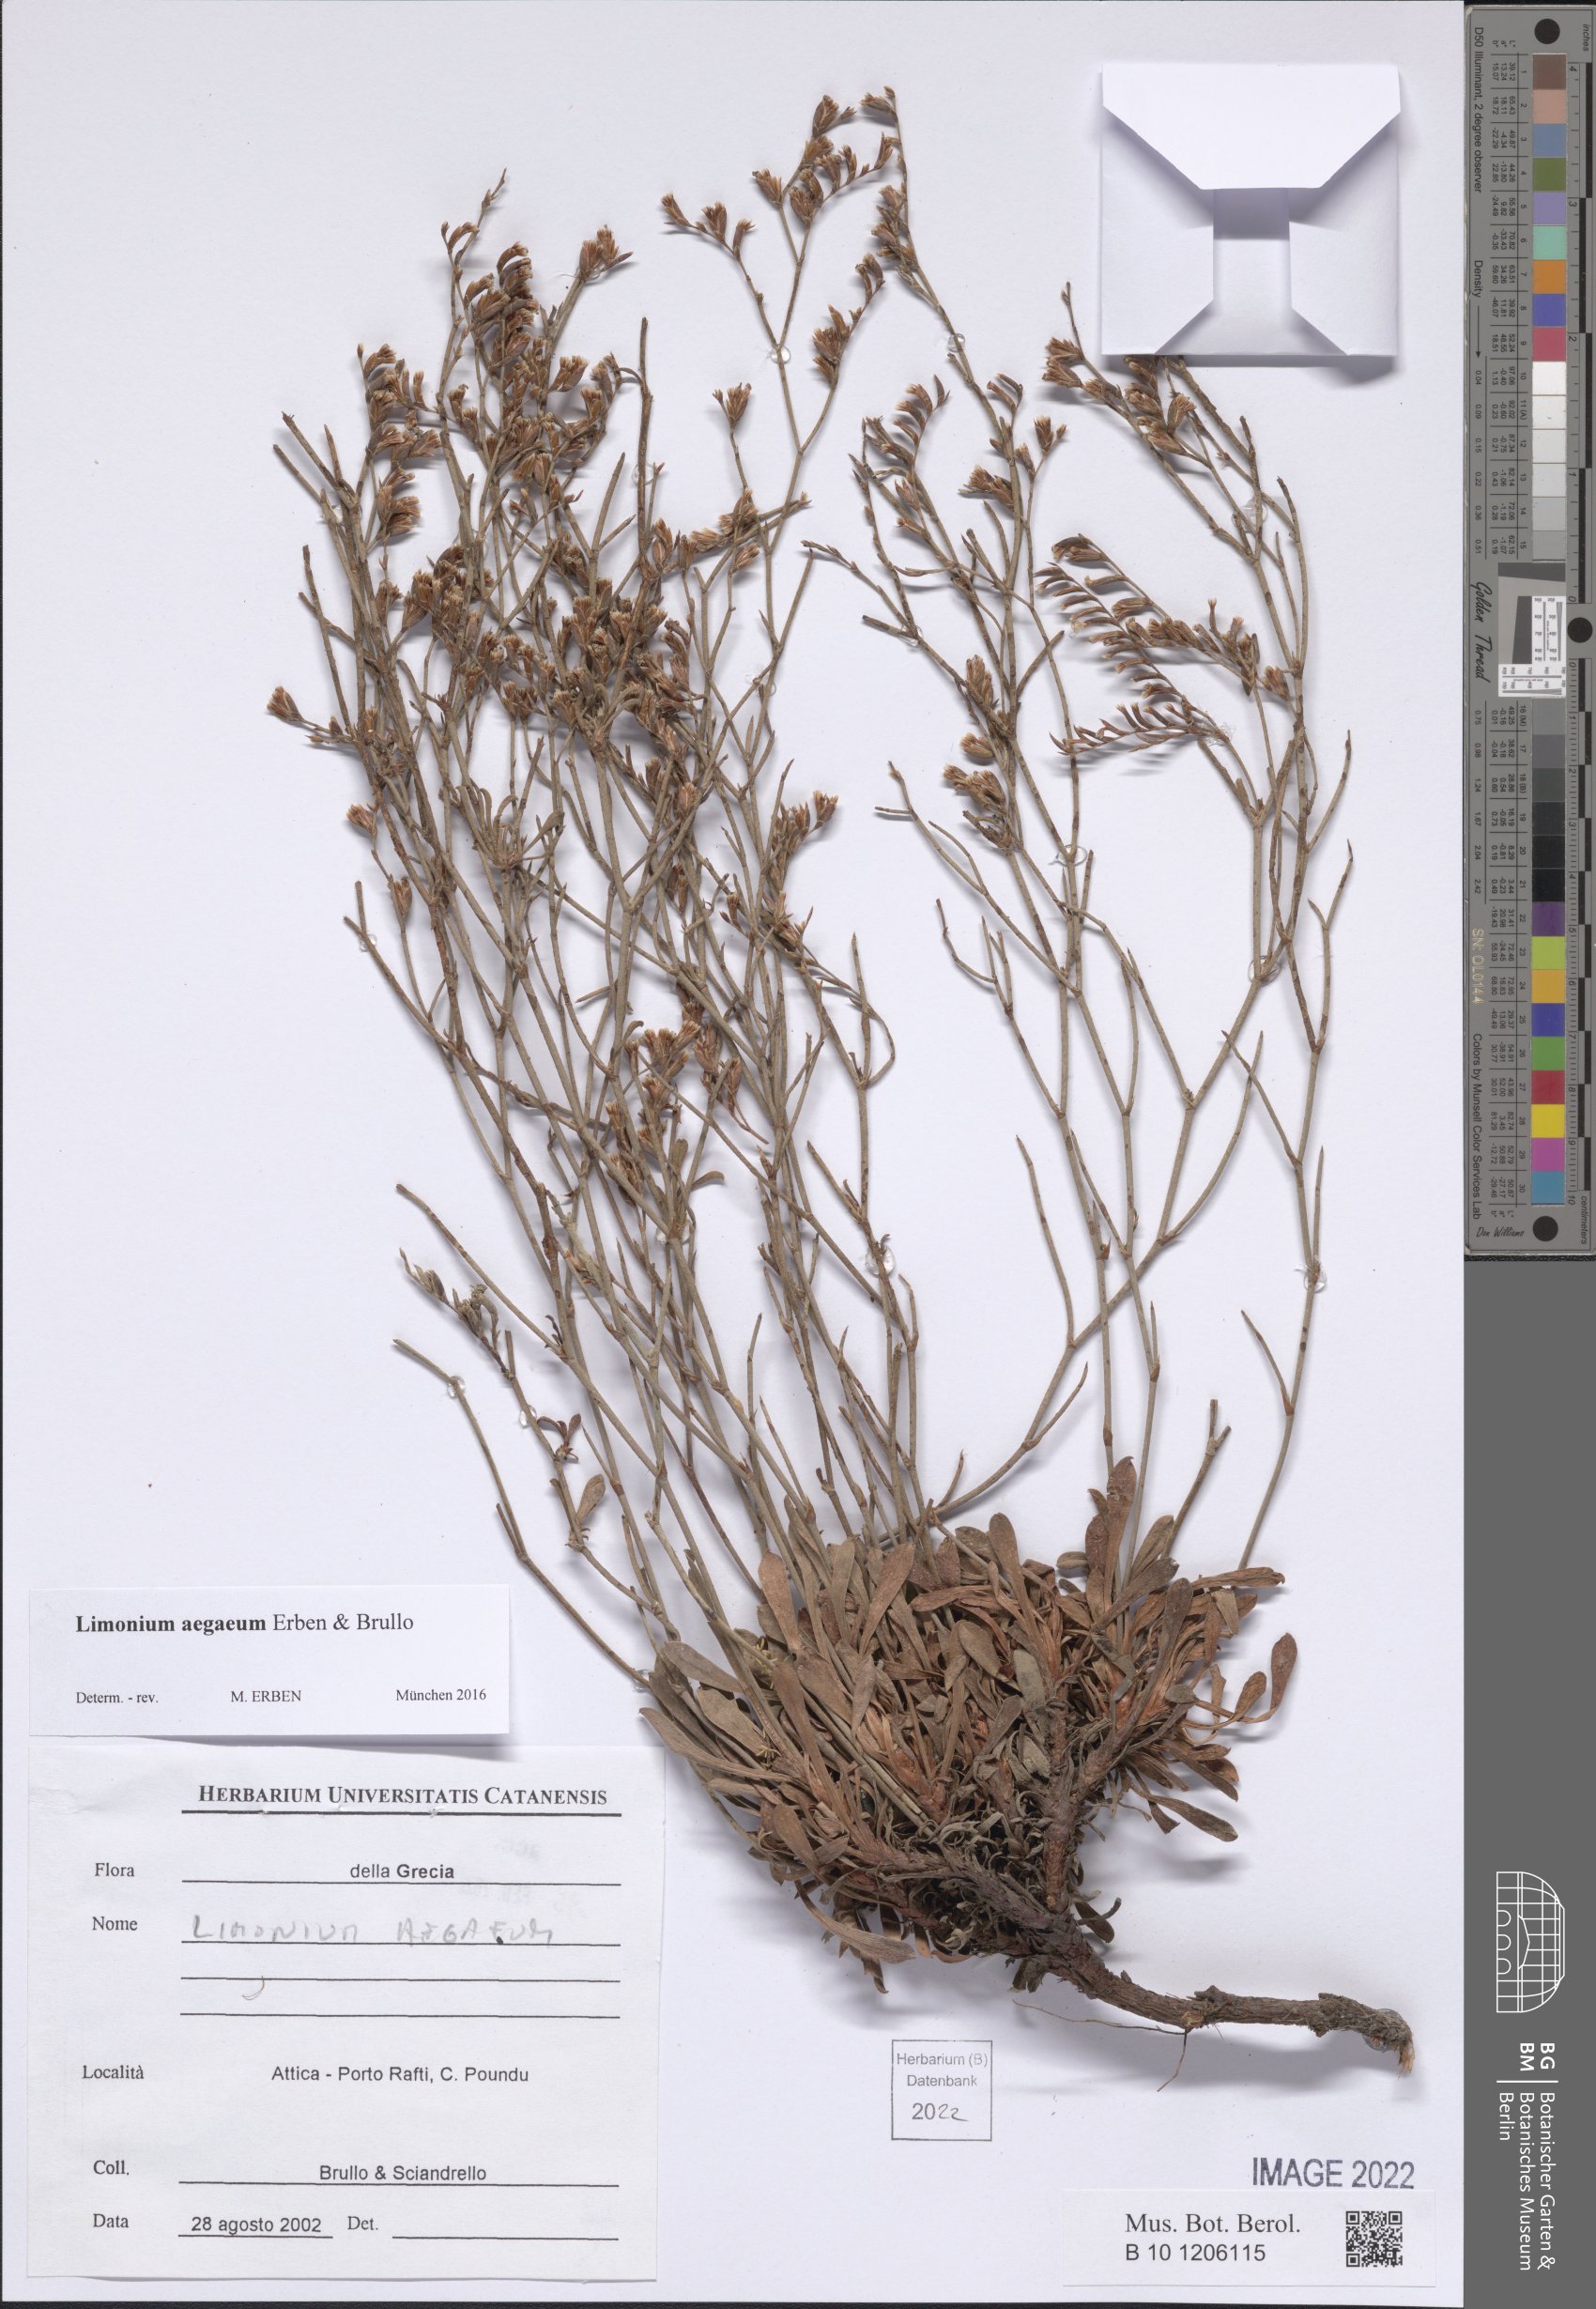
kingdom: Plantae
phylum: Tracheophyta
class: Magnoliopsida
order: Caryophyllales
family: Plumbaginaceae
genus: Limonium
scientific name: Limonium aegaeum
